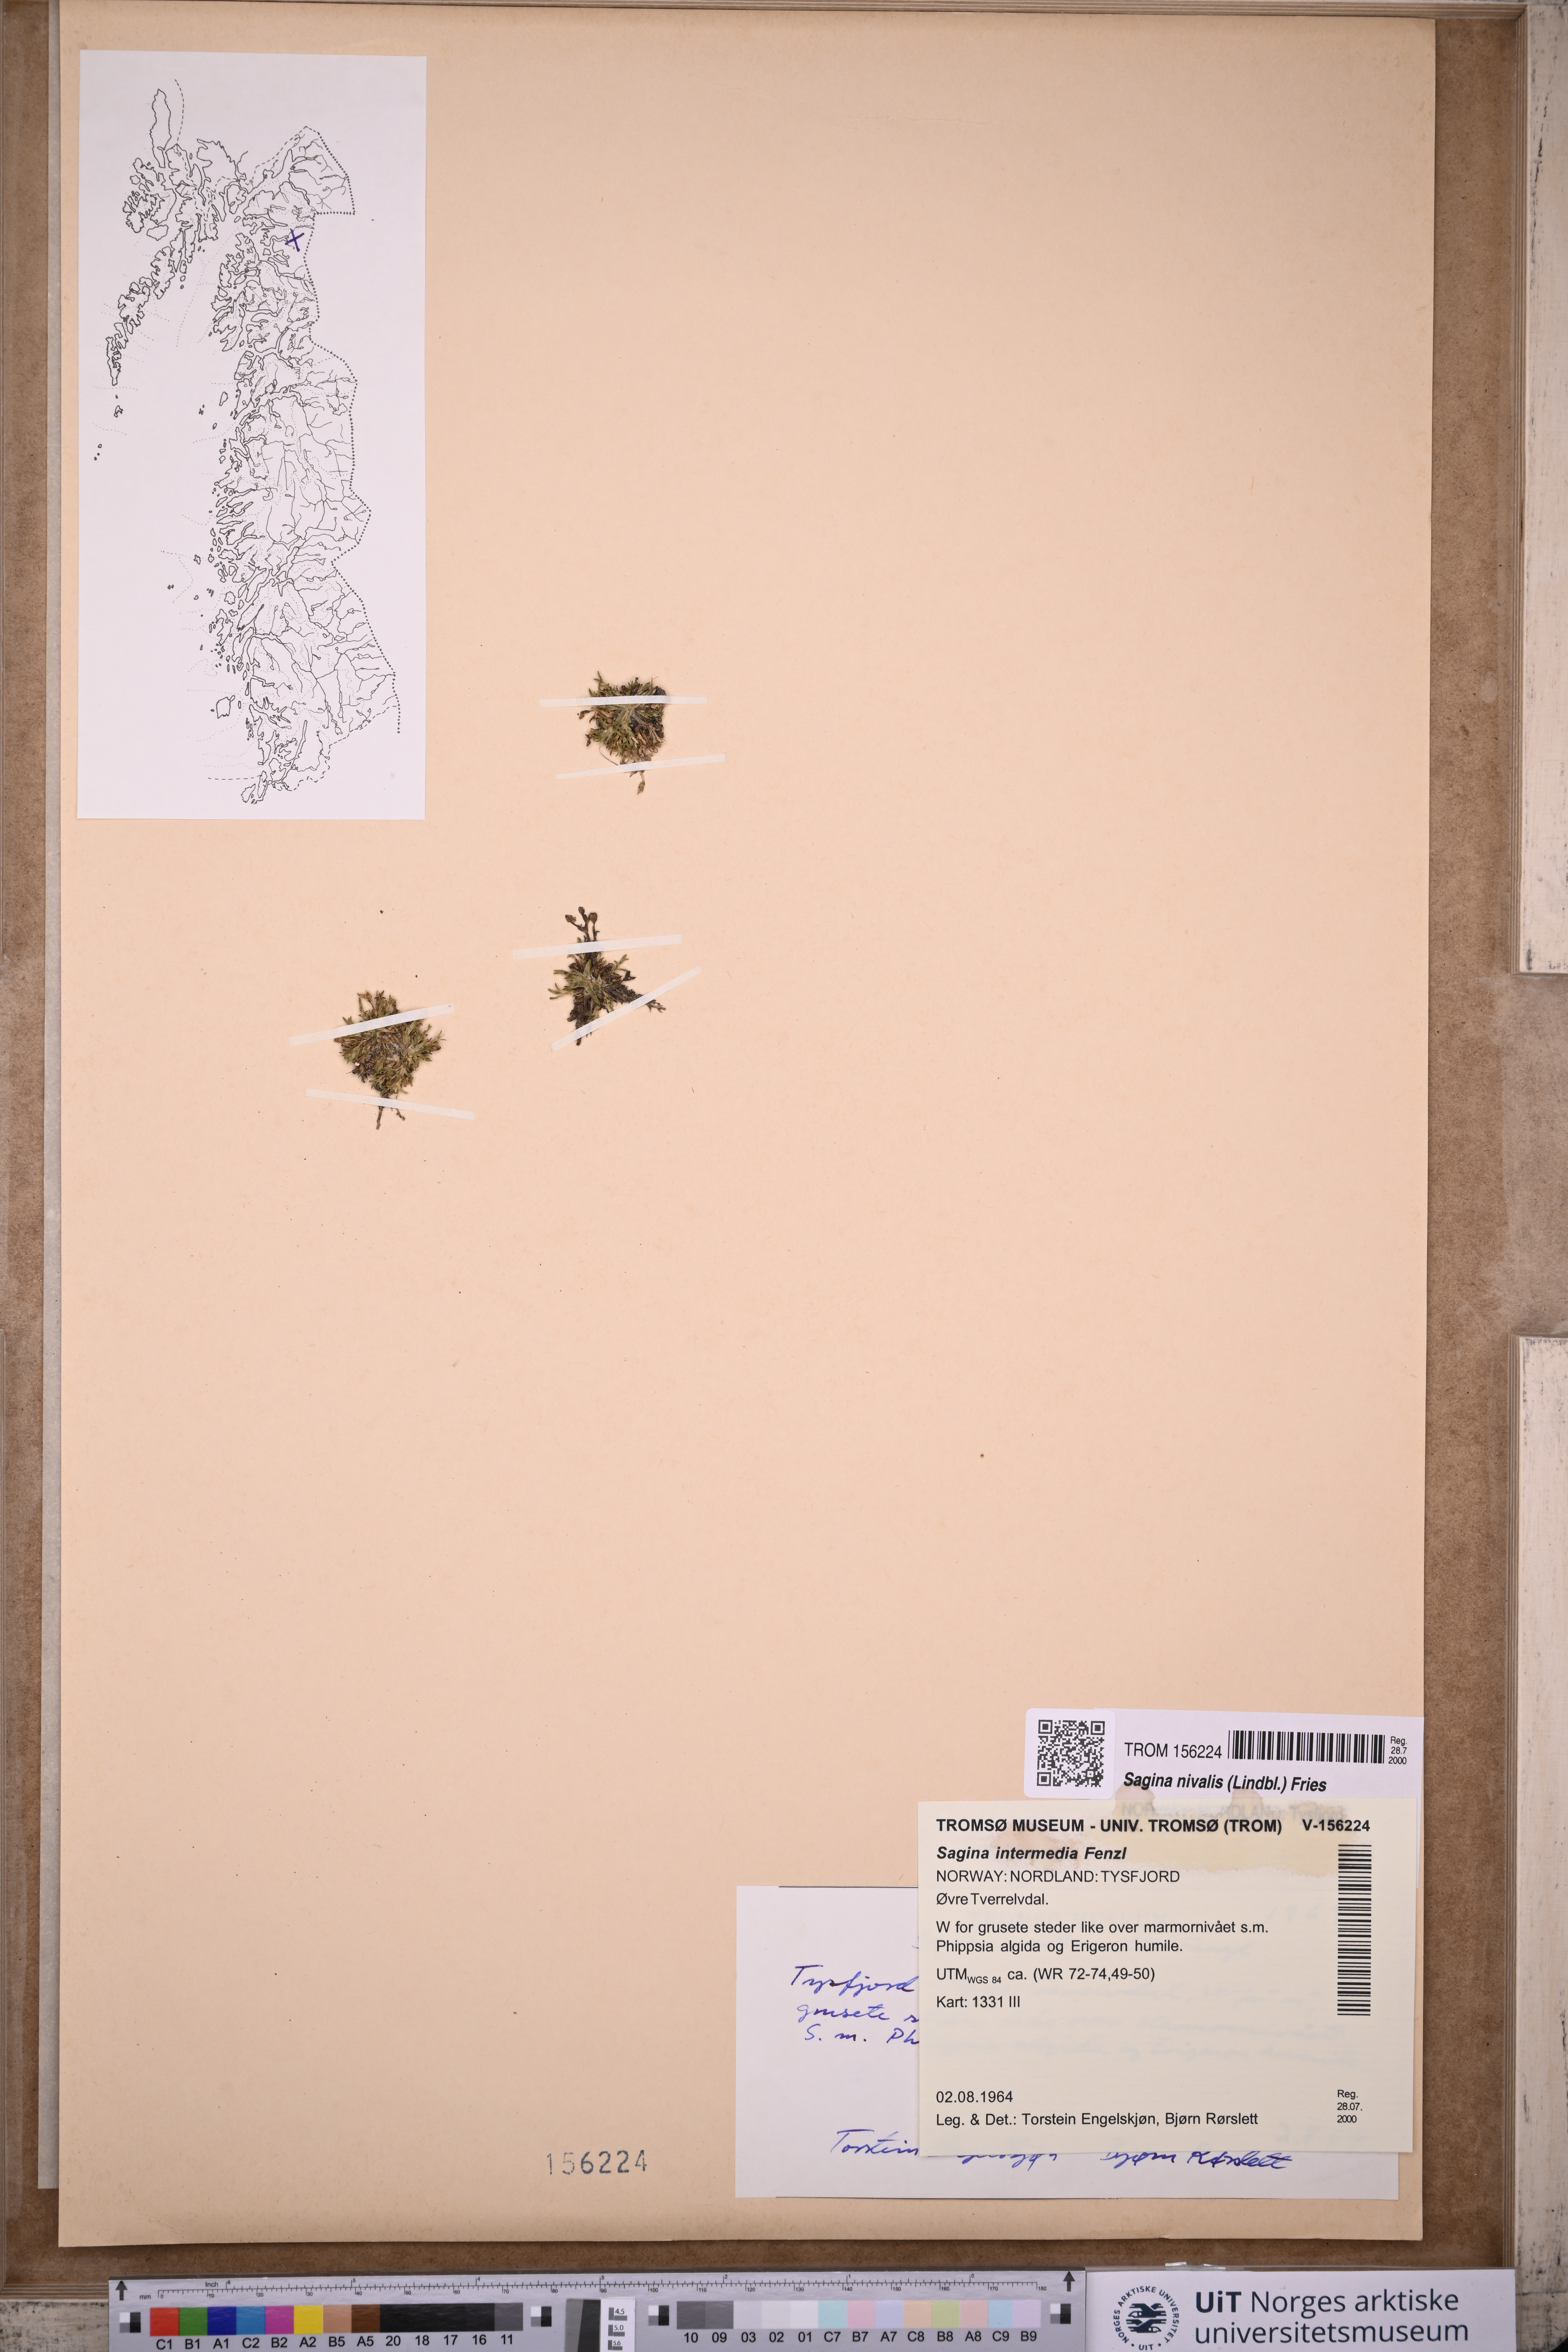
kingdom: Plantae
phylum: Tracheophyta
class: Magnoliopsida
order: Caryophyllales
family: Caryophyllaceae
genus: Sagina
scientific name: Sagina nivalis
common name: Snow pearlwort
